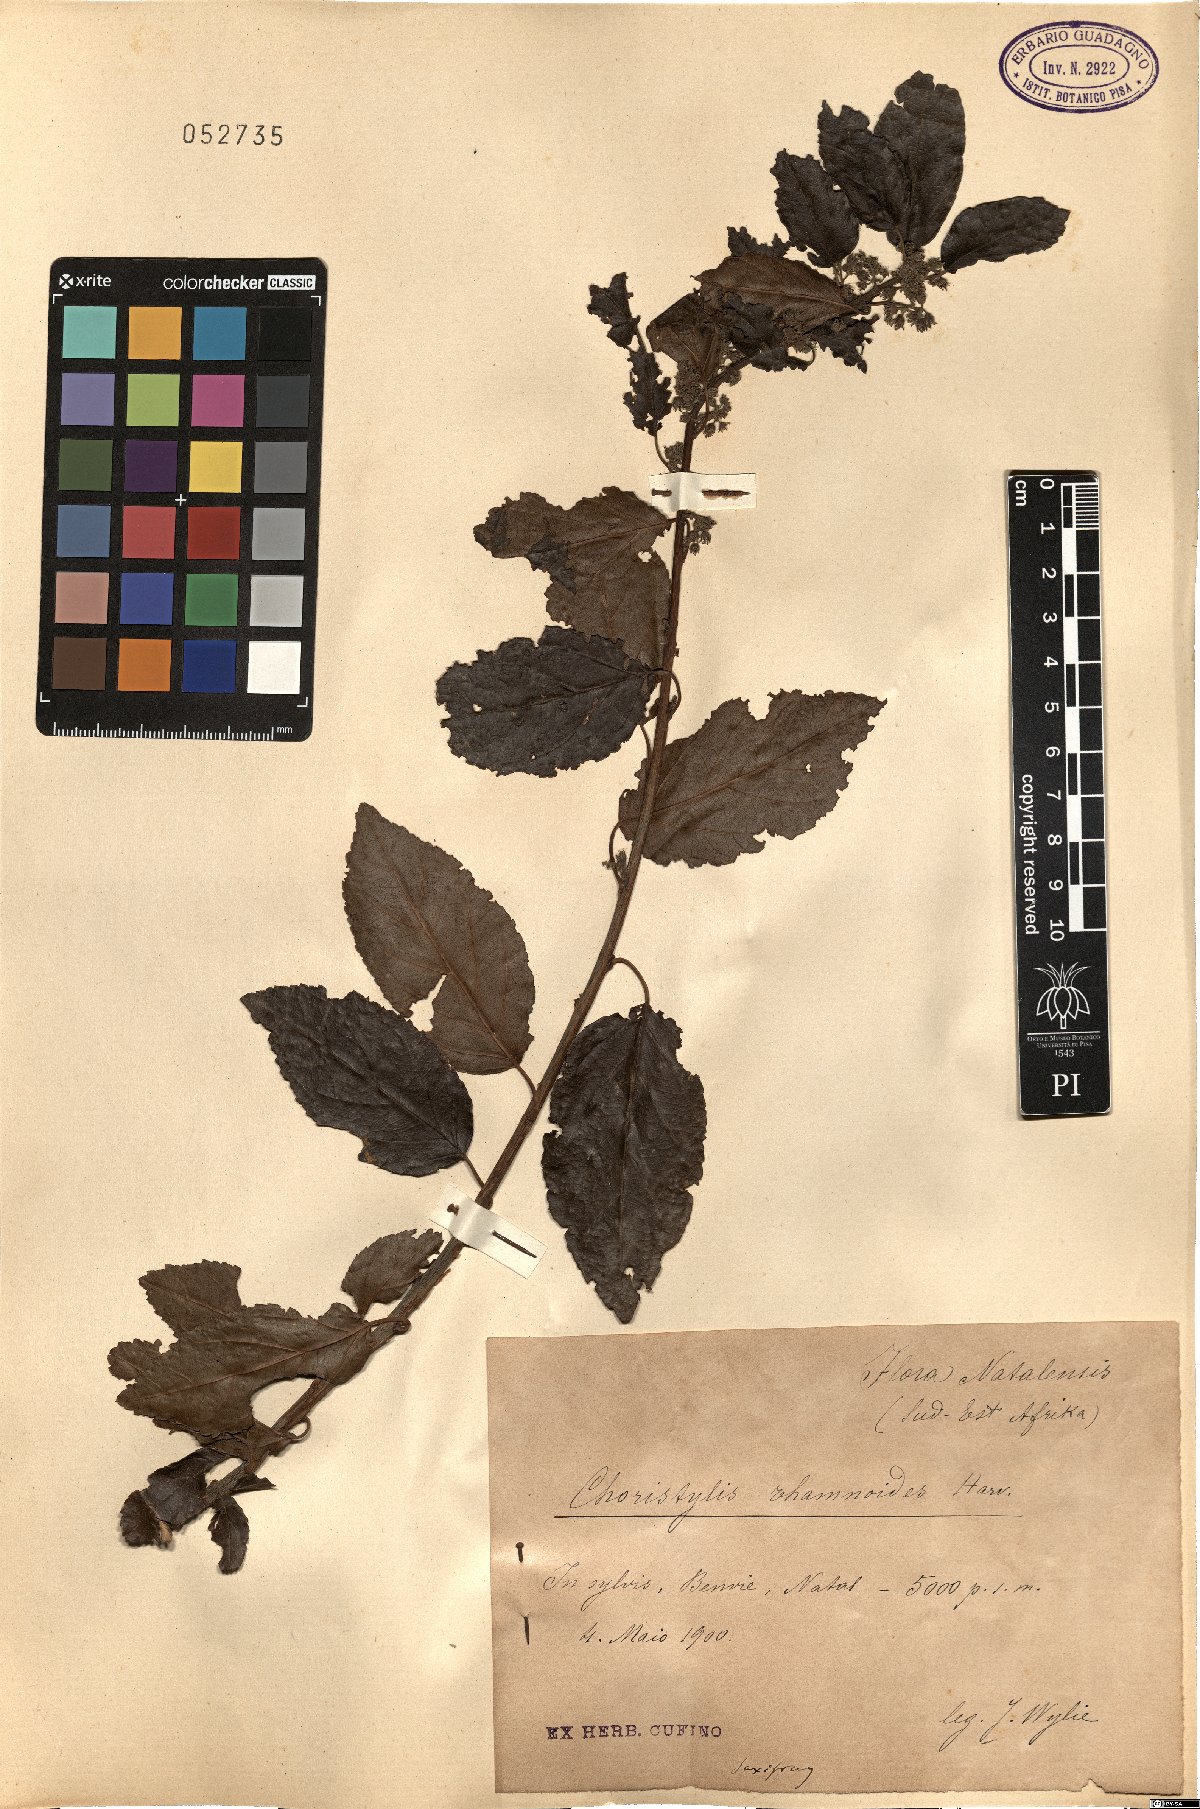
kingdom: Plantae
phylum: Tracheophyta
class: Magnoliopsida
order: Saxifragales
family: Iteaceae
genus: Itea
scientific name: Itea rhamnoides
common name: False dogwood
